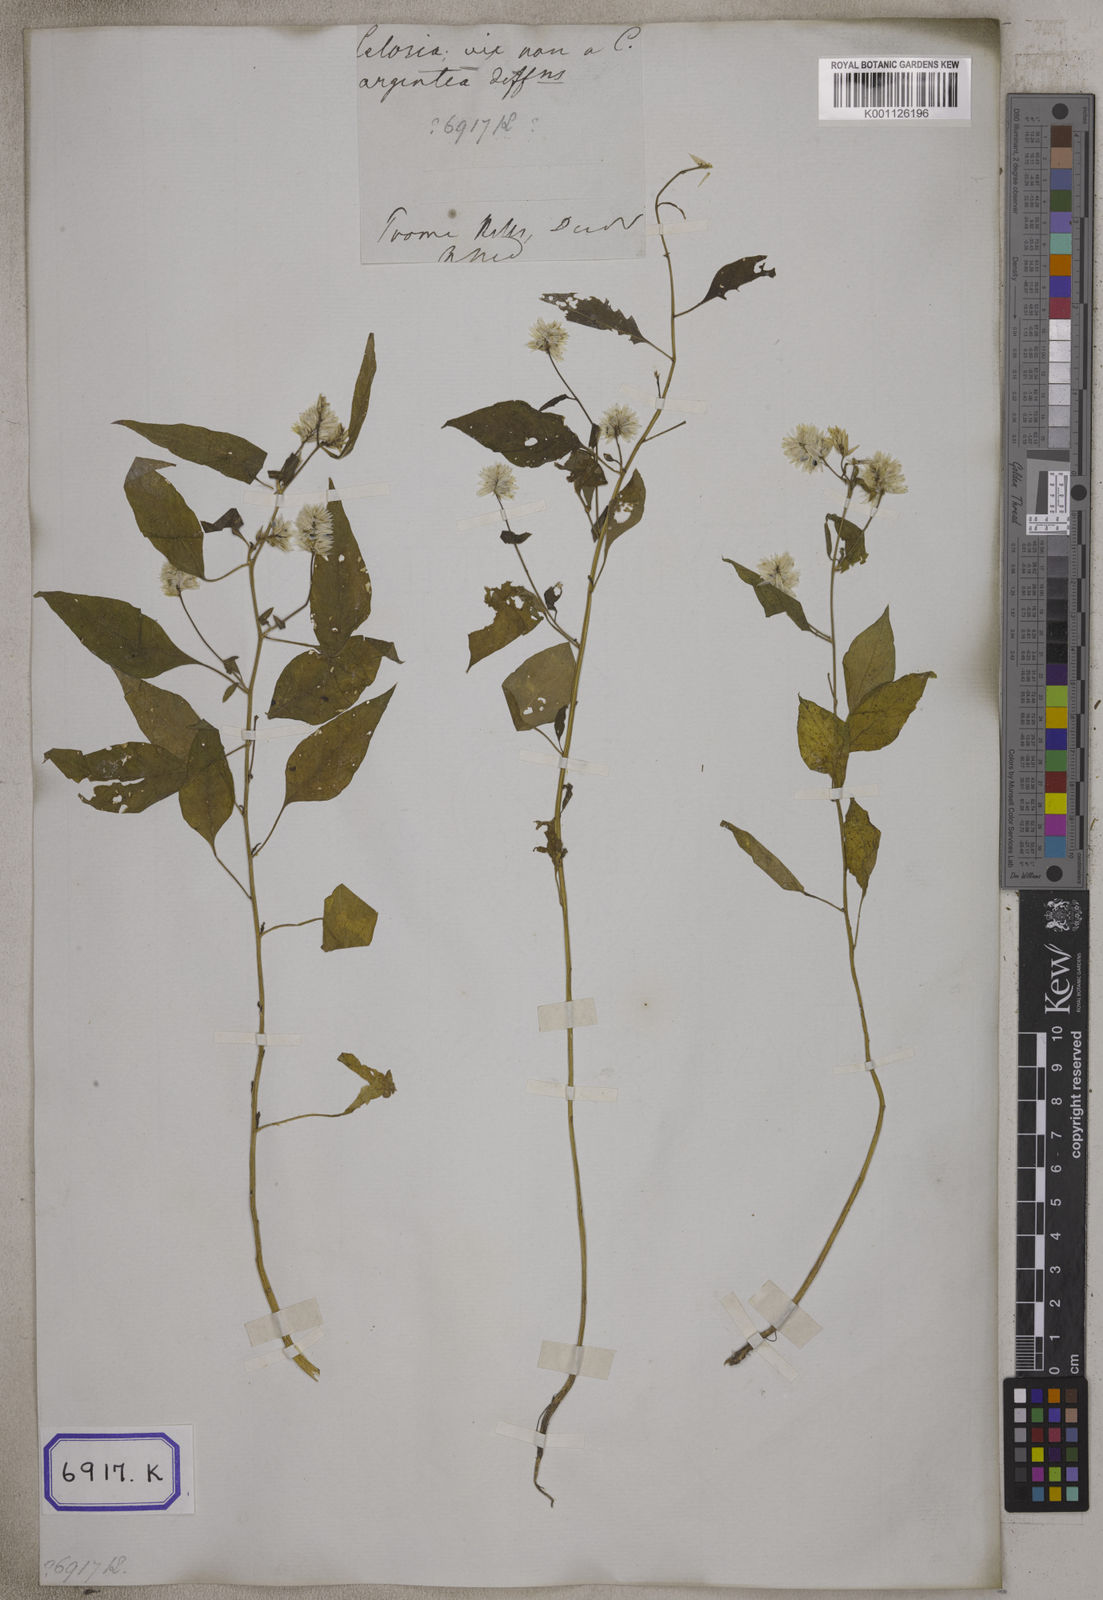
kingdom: Plantae
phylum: Tracheophyta
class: Magnoliopsida
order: Caryophyllales
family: Amaranthaceae
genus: Celosia
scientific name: Celosia argentea
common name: Feather cockscomb
